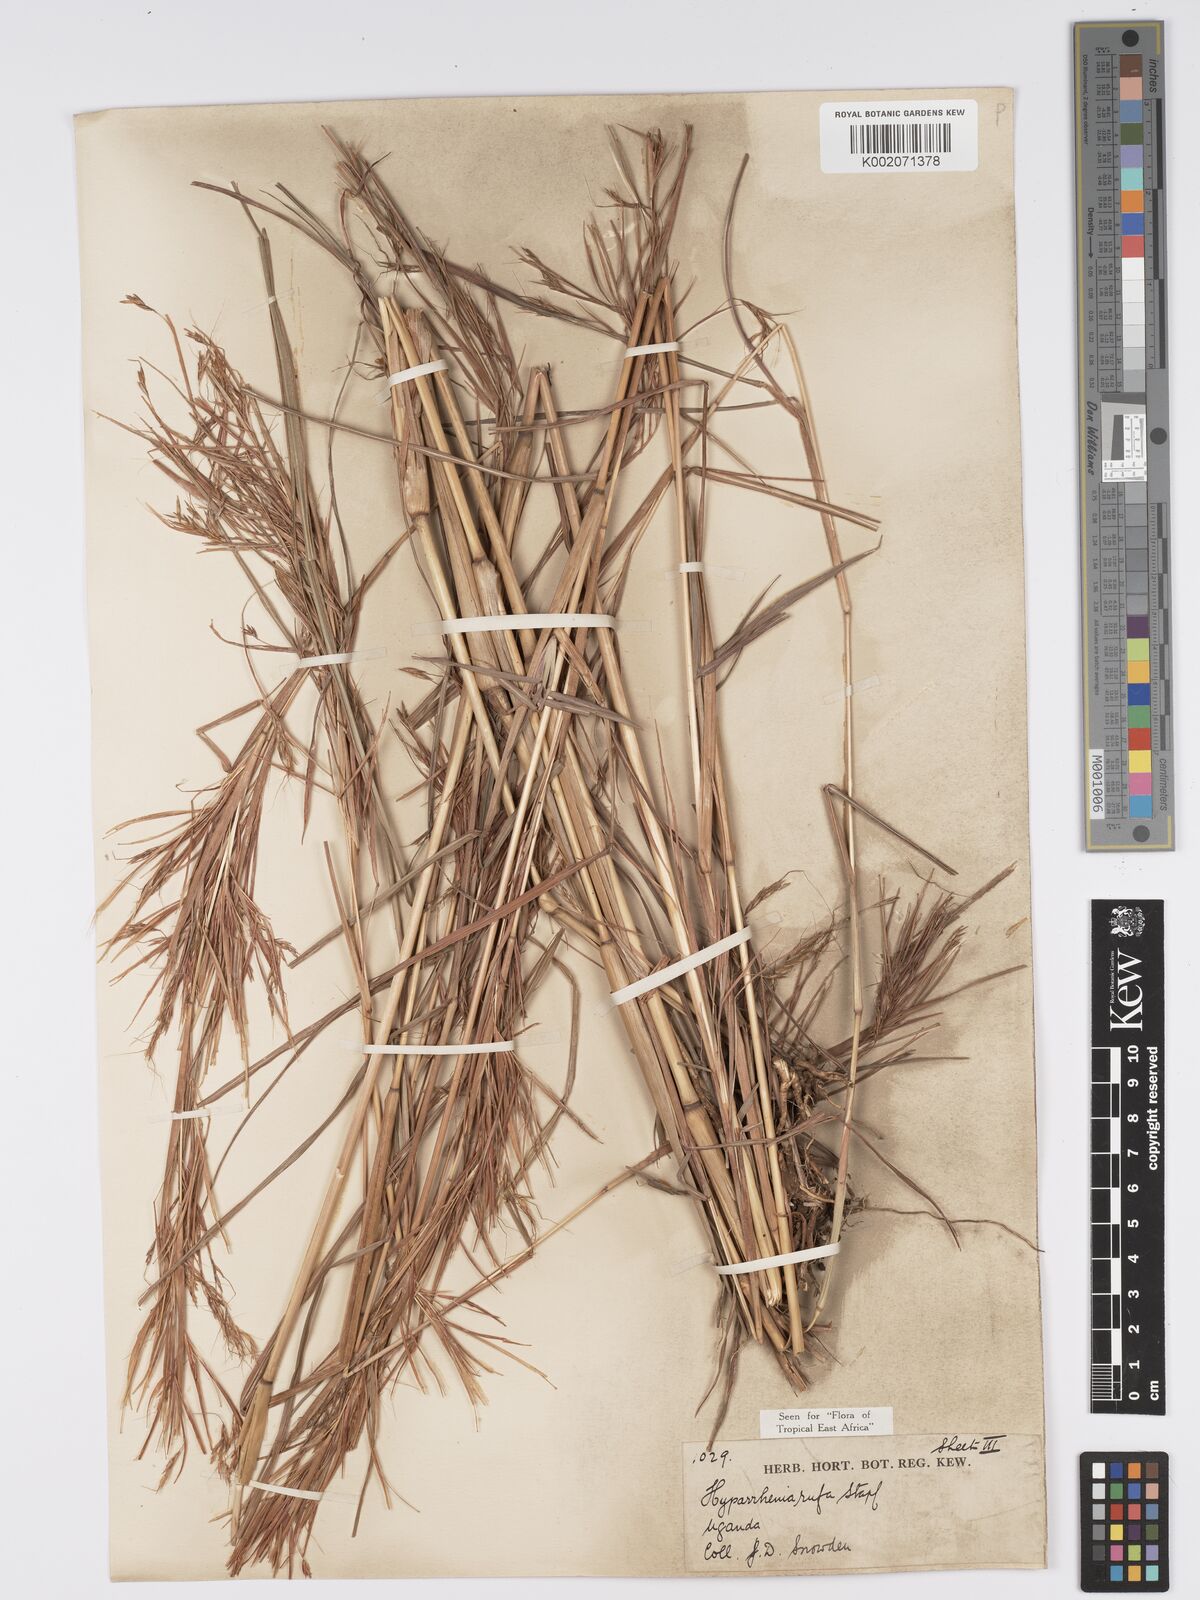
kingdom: Plantae
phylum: Tracheophyta
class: Liliopsida
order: Poales
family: Poaceae
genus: Hyparrhenia
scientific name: Hyparrhenia rufa
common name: Jaraguagrass
